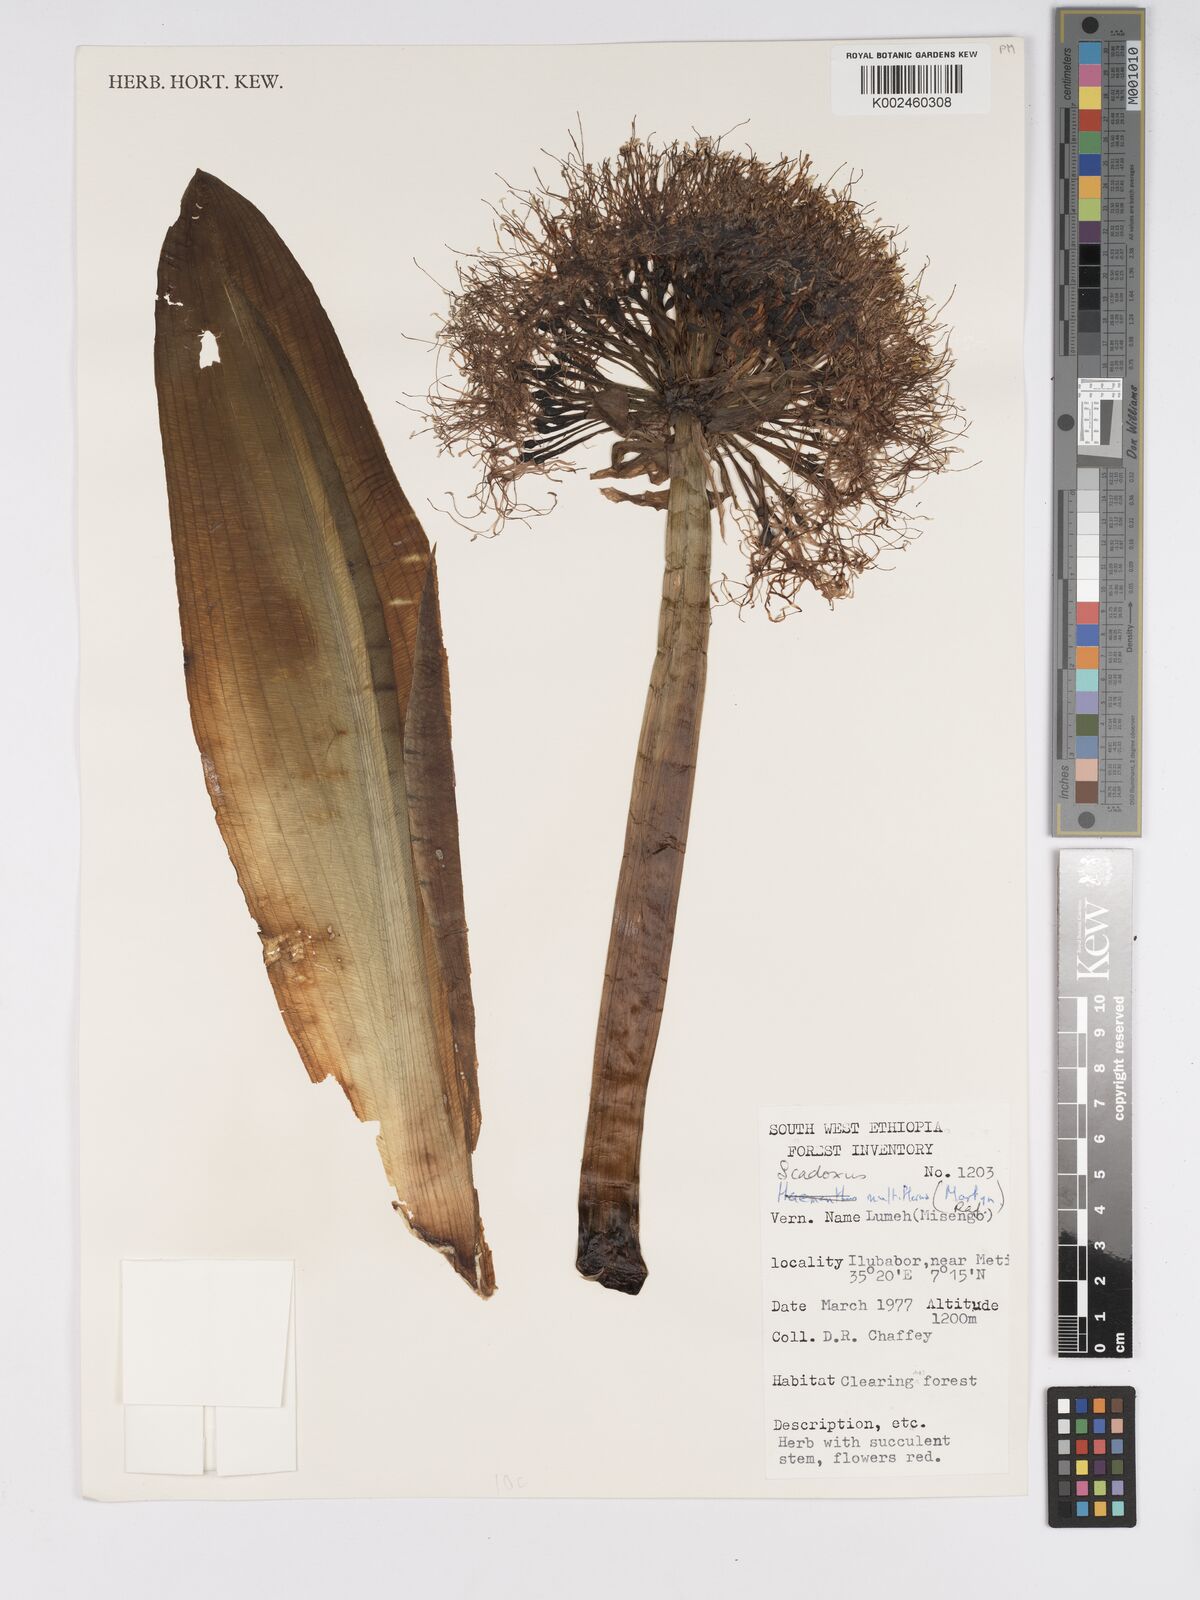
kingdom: Plantae
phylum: Tracheophyta
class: Liliopsida
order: Asparagales
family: Amaryllidaceae
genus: Scadoxus
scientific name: Scadoxus multiflorus
